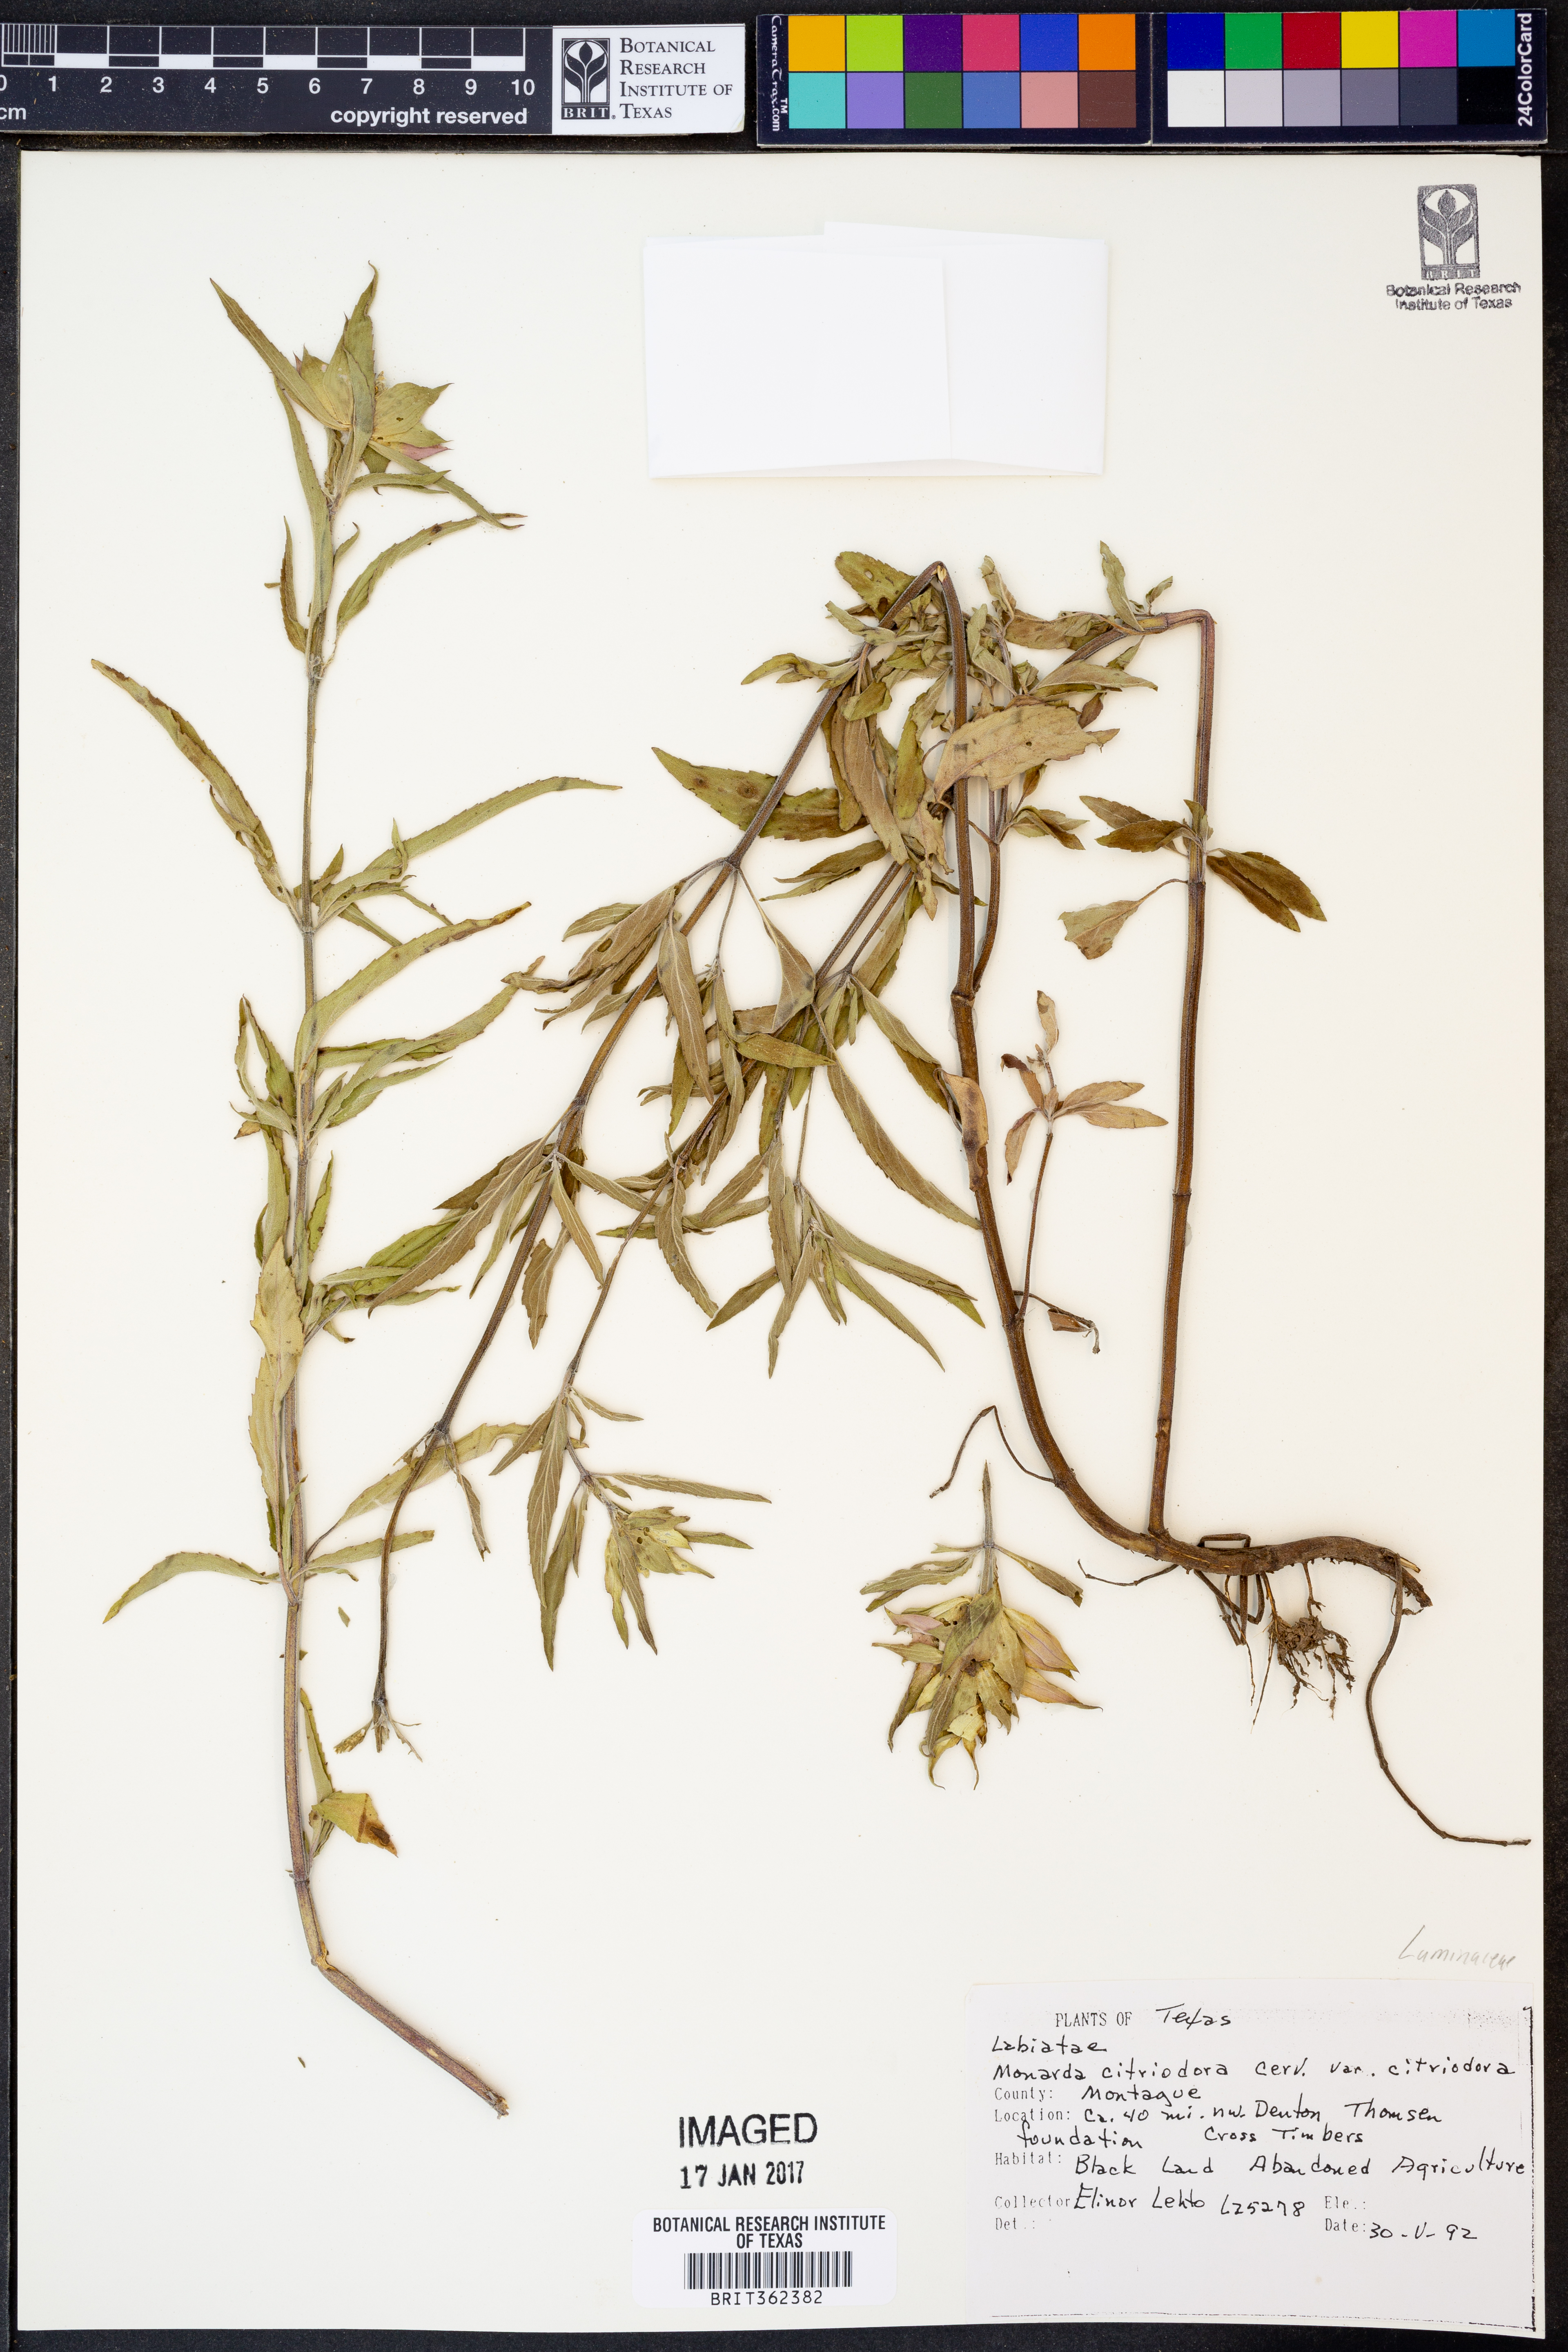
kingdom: Plantae
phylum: Tracheophyta
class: Magnoliopsida
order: Lamiales
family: Lamiaceae
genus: Monarda
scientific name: Monarda punctata
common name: Dotted monarda
